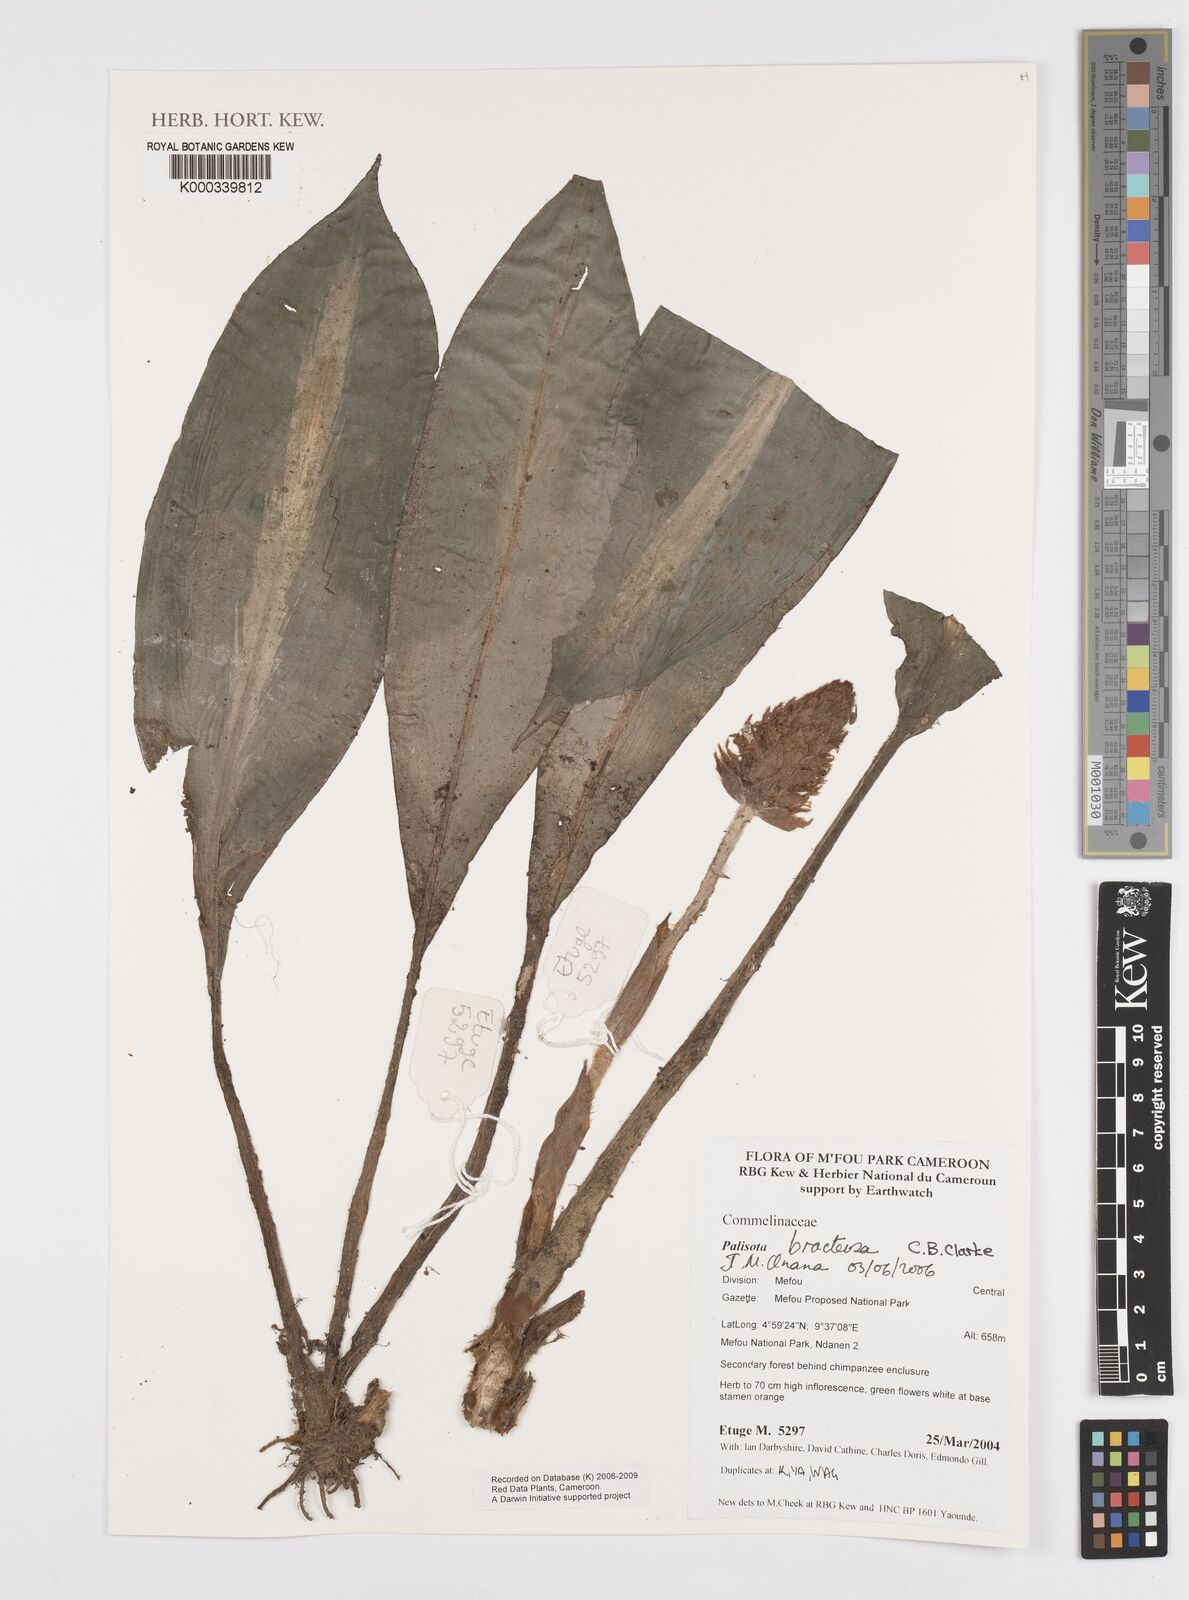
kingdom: Plantae
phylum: Tracheophyta
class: Liliopsida
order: Commelinales
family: Commelinaceae
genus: Palisota
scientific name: Palisota bracteosa
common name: Palisota
